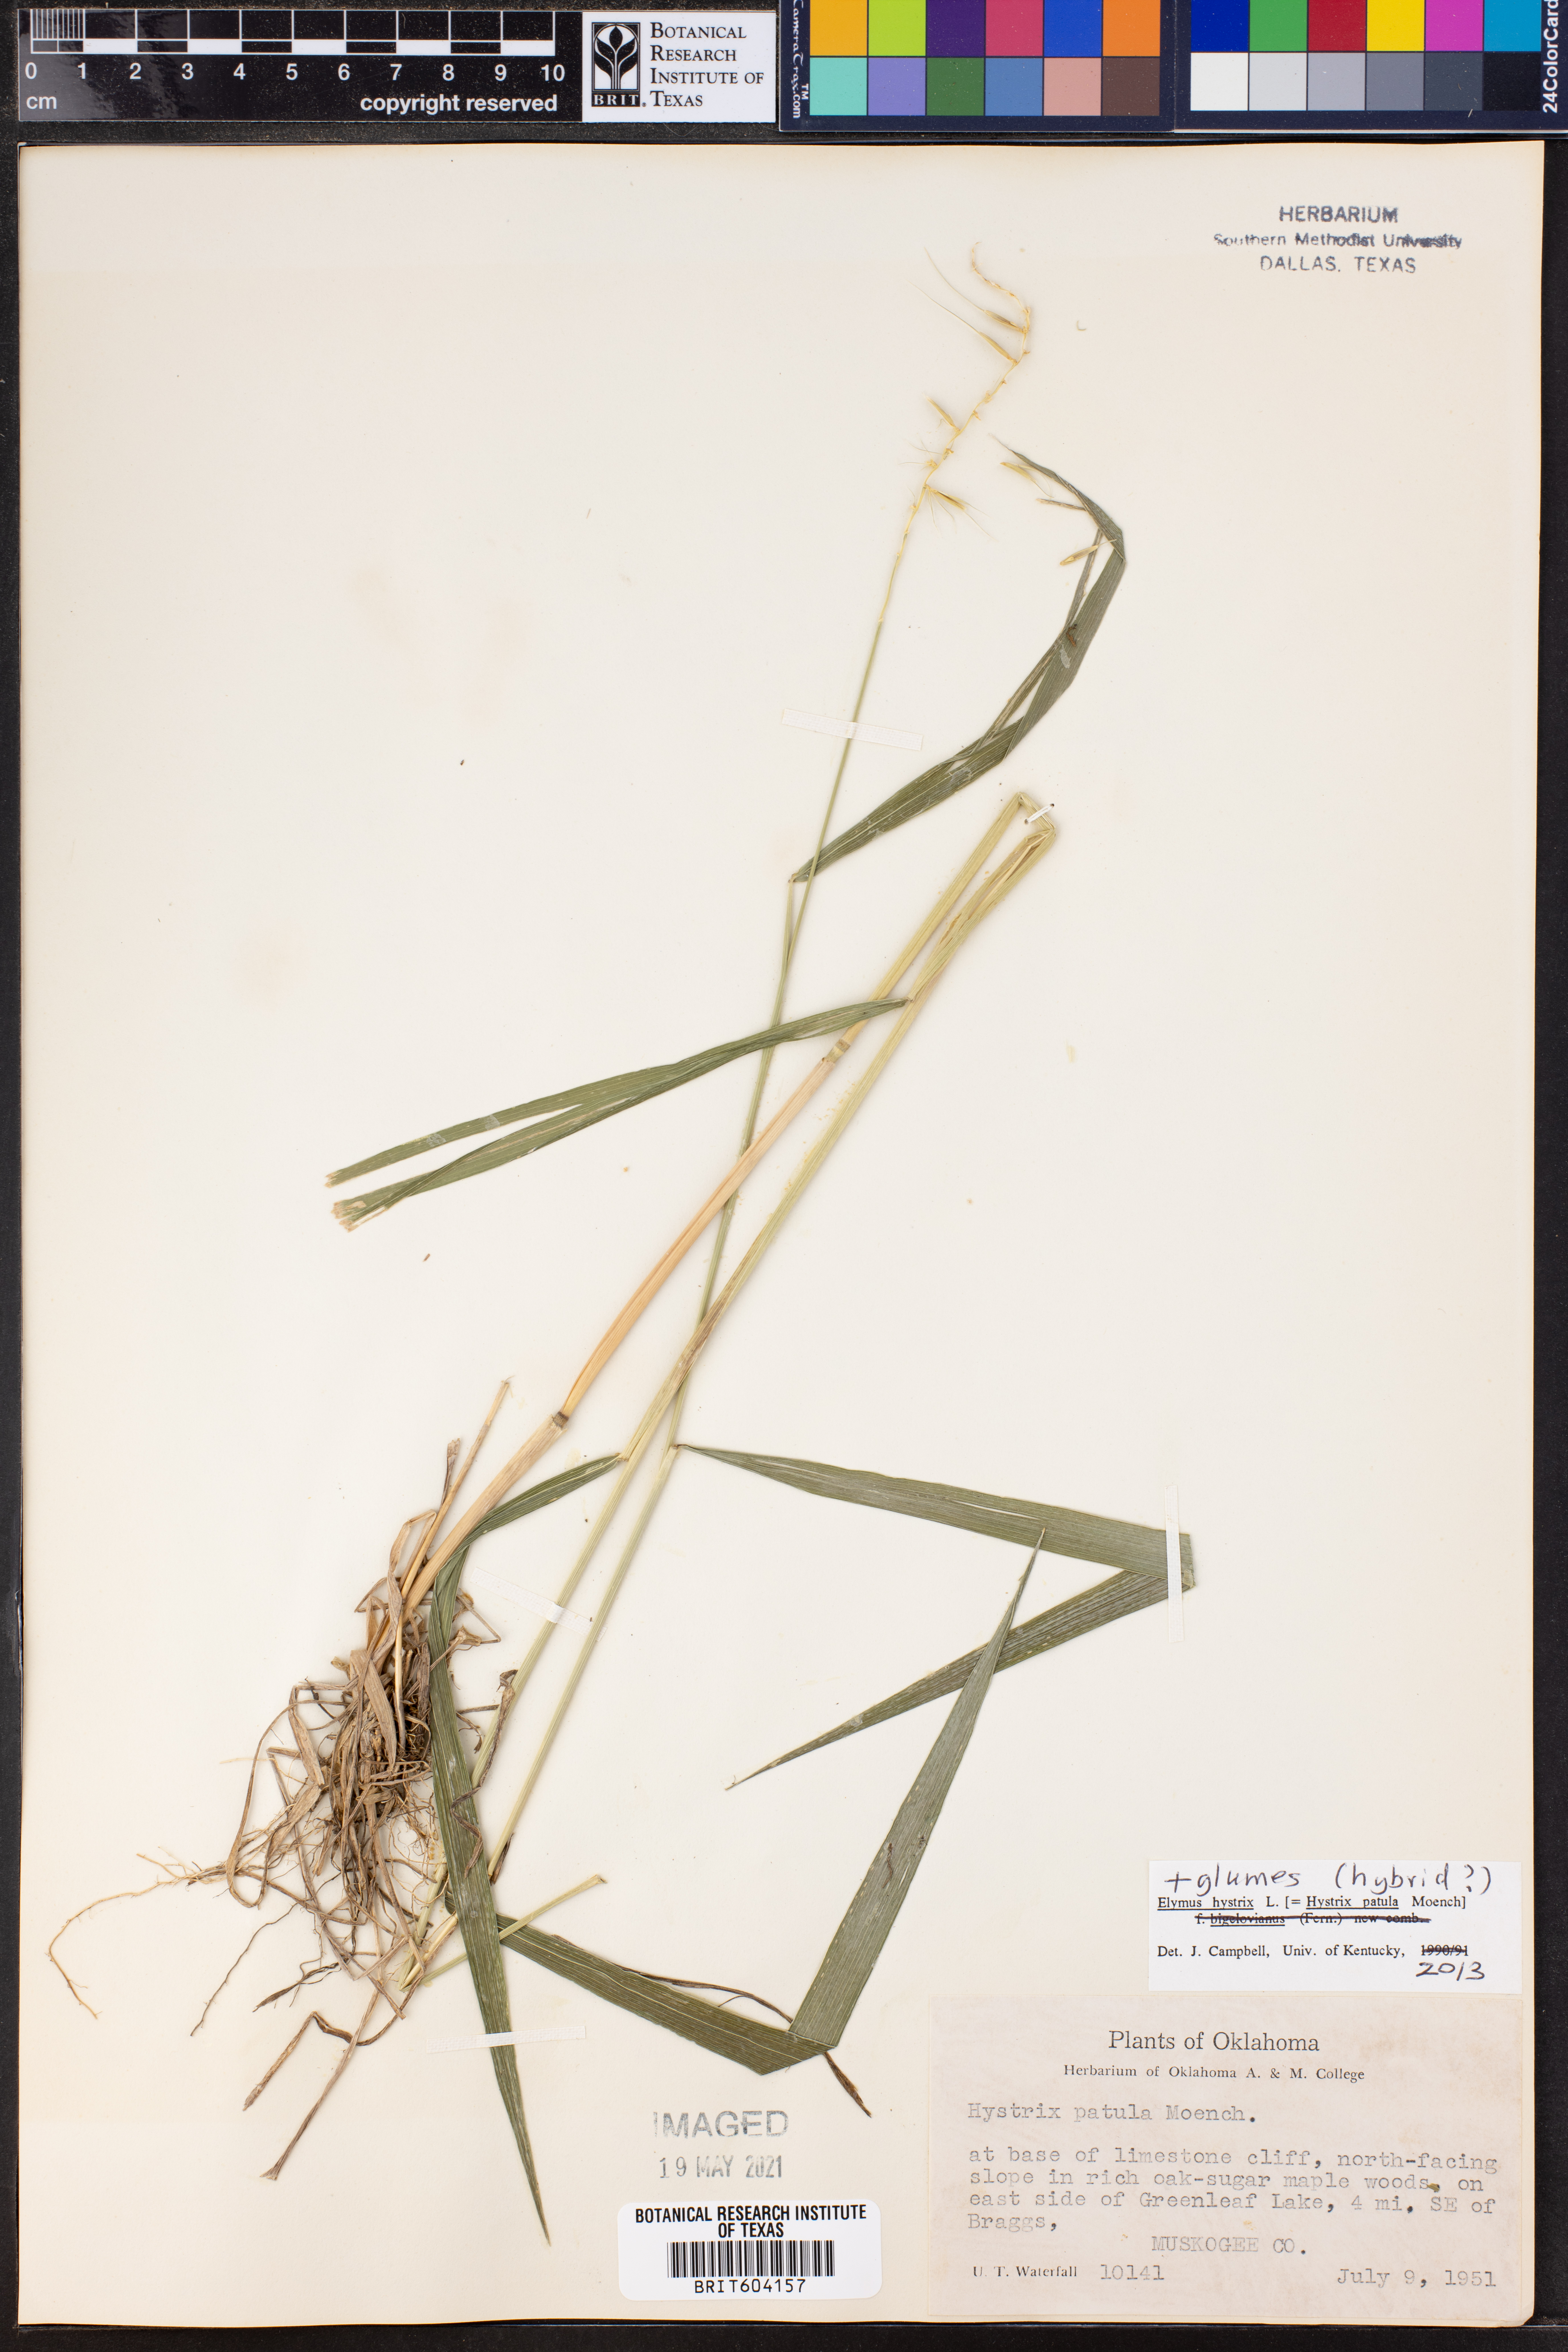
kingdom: Plantae
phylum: Tracheophyta
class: Liliopsida
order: Poales
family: Poaceae
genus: Elymus
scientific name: Elymus hystrix
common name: Bottlebrush grass
